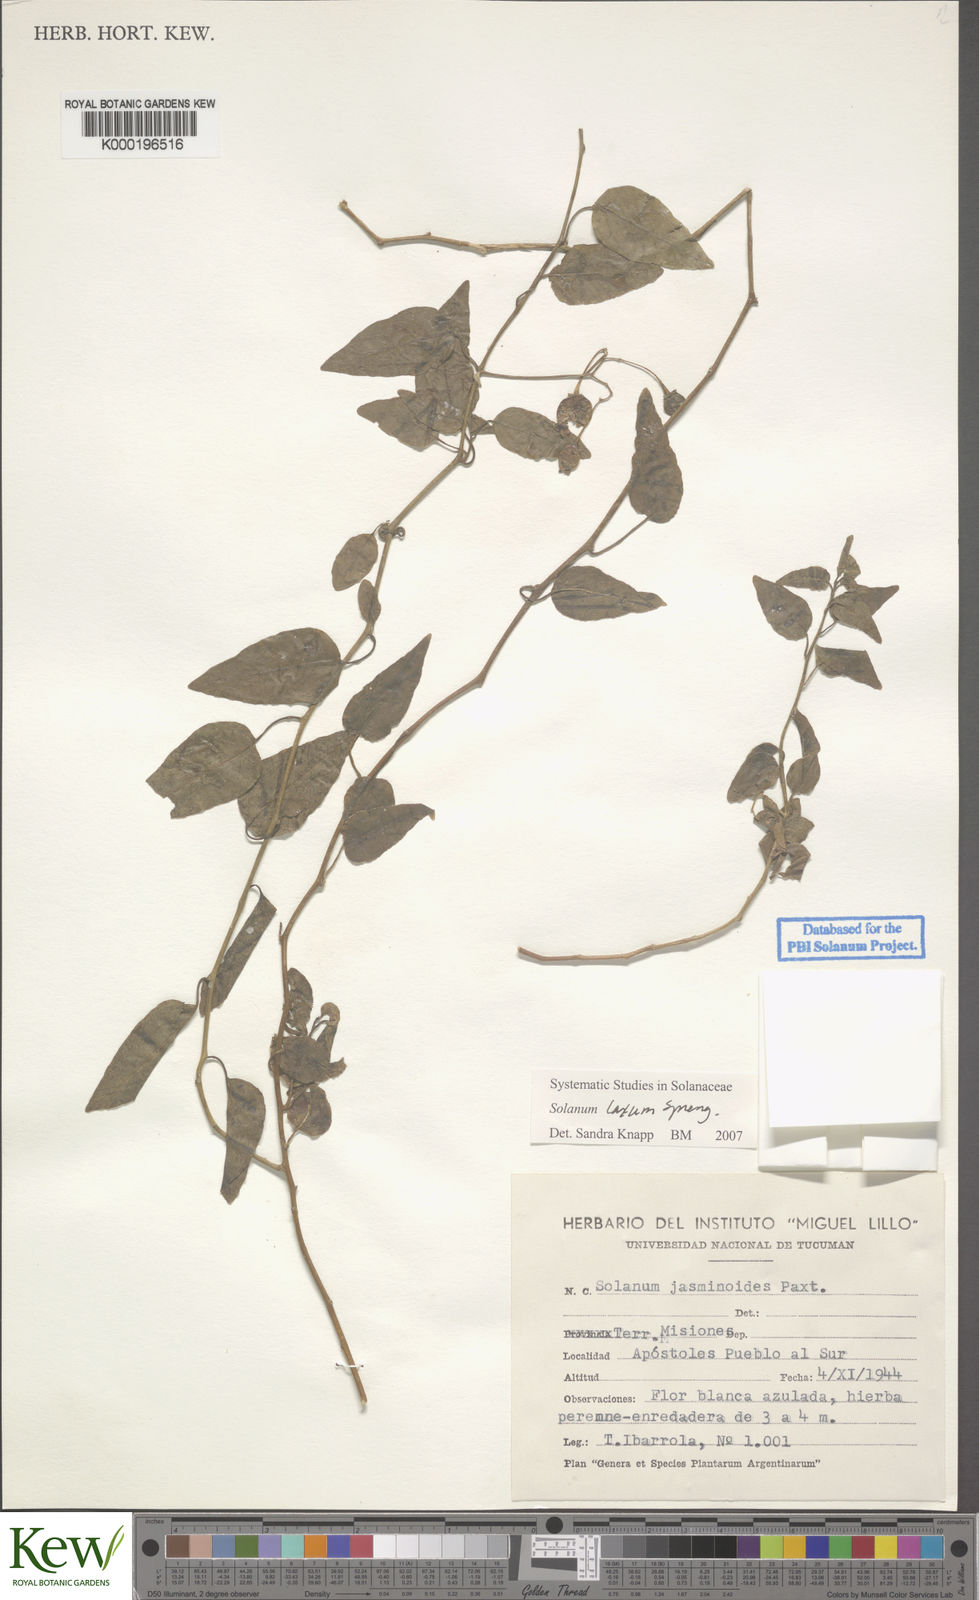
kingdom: Plantae
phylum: Tracheophyta
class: Magnoliopsida
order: Solanales
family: Solanaceae
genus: Solanum
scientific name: Solanum laxum
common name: Nightshade
